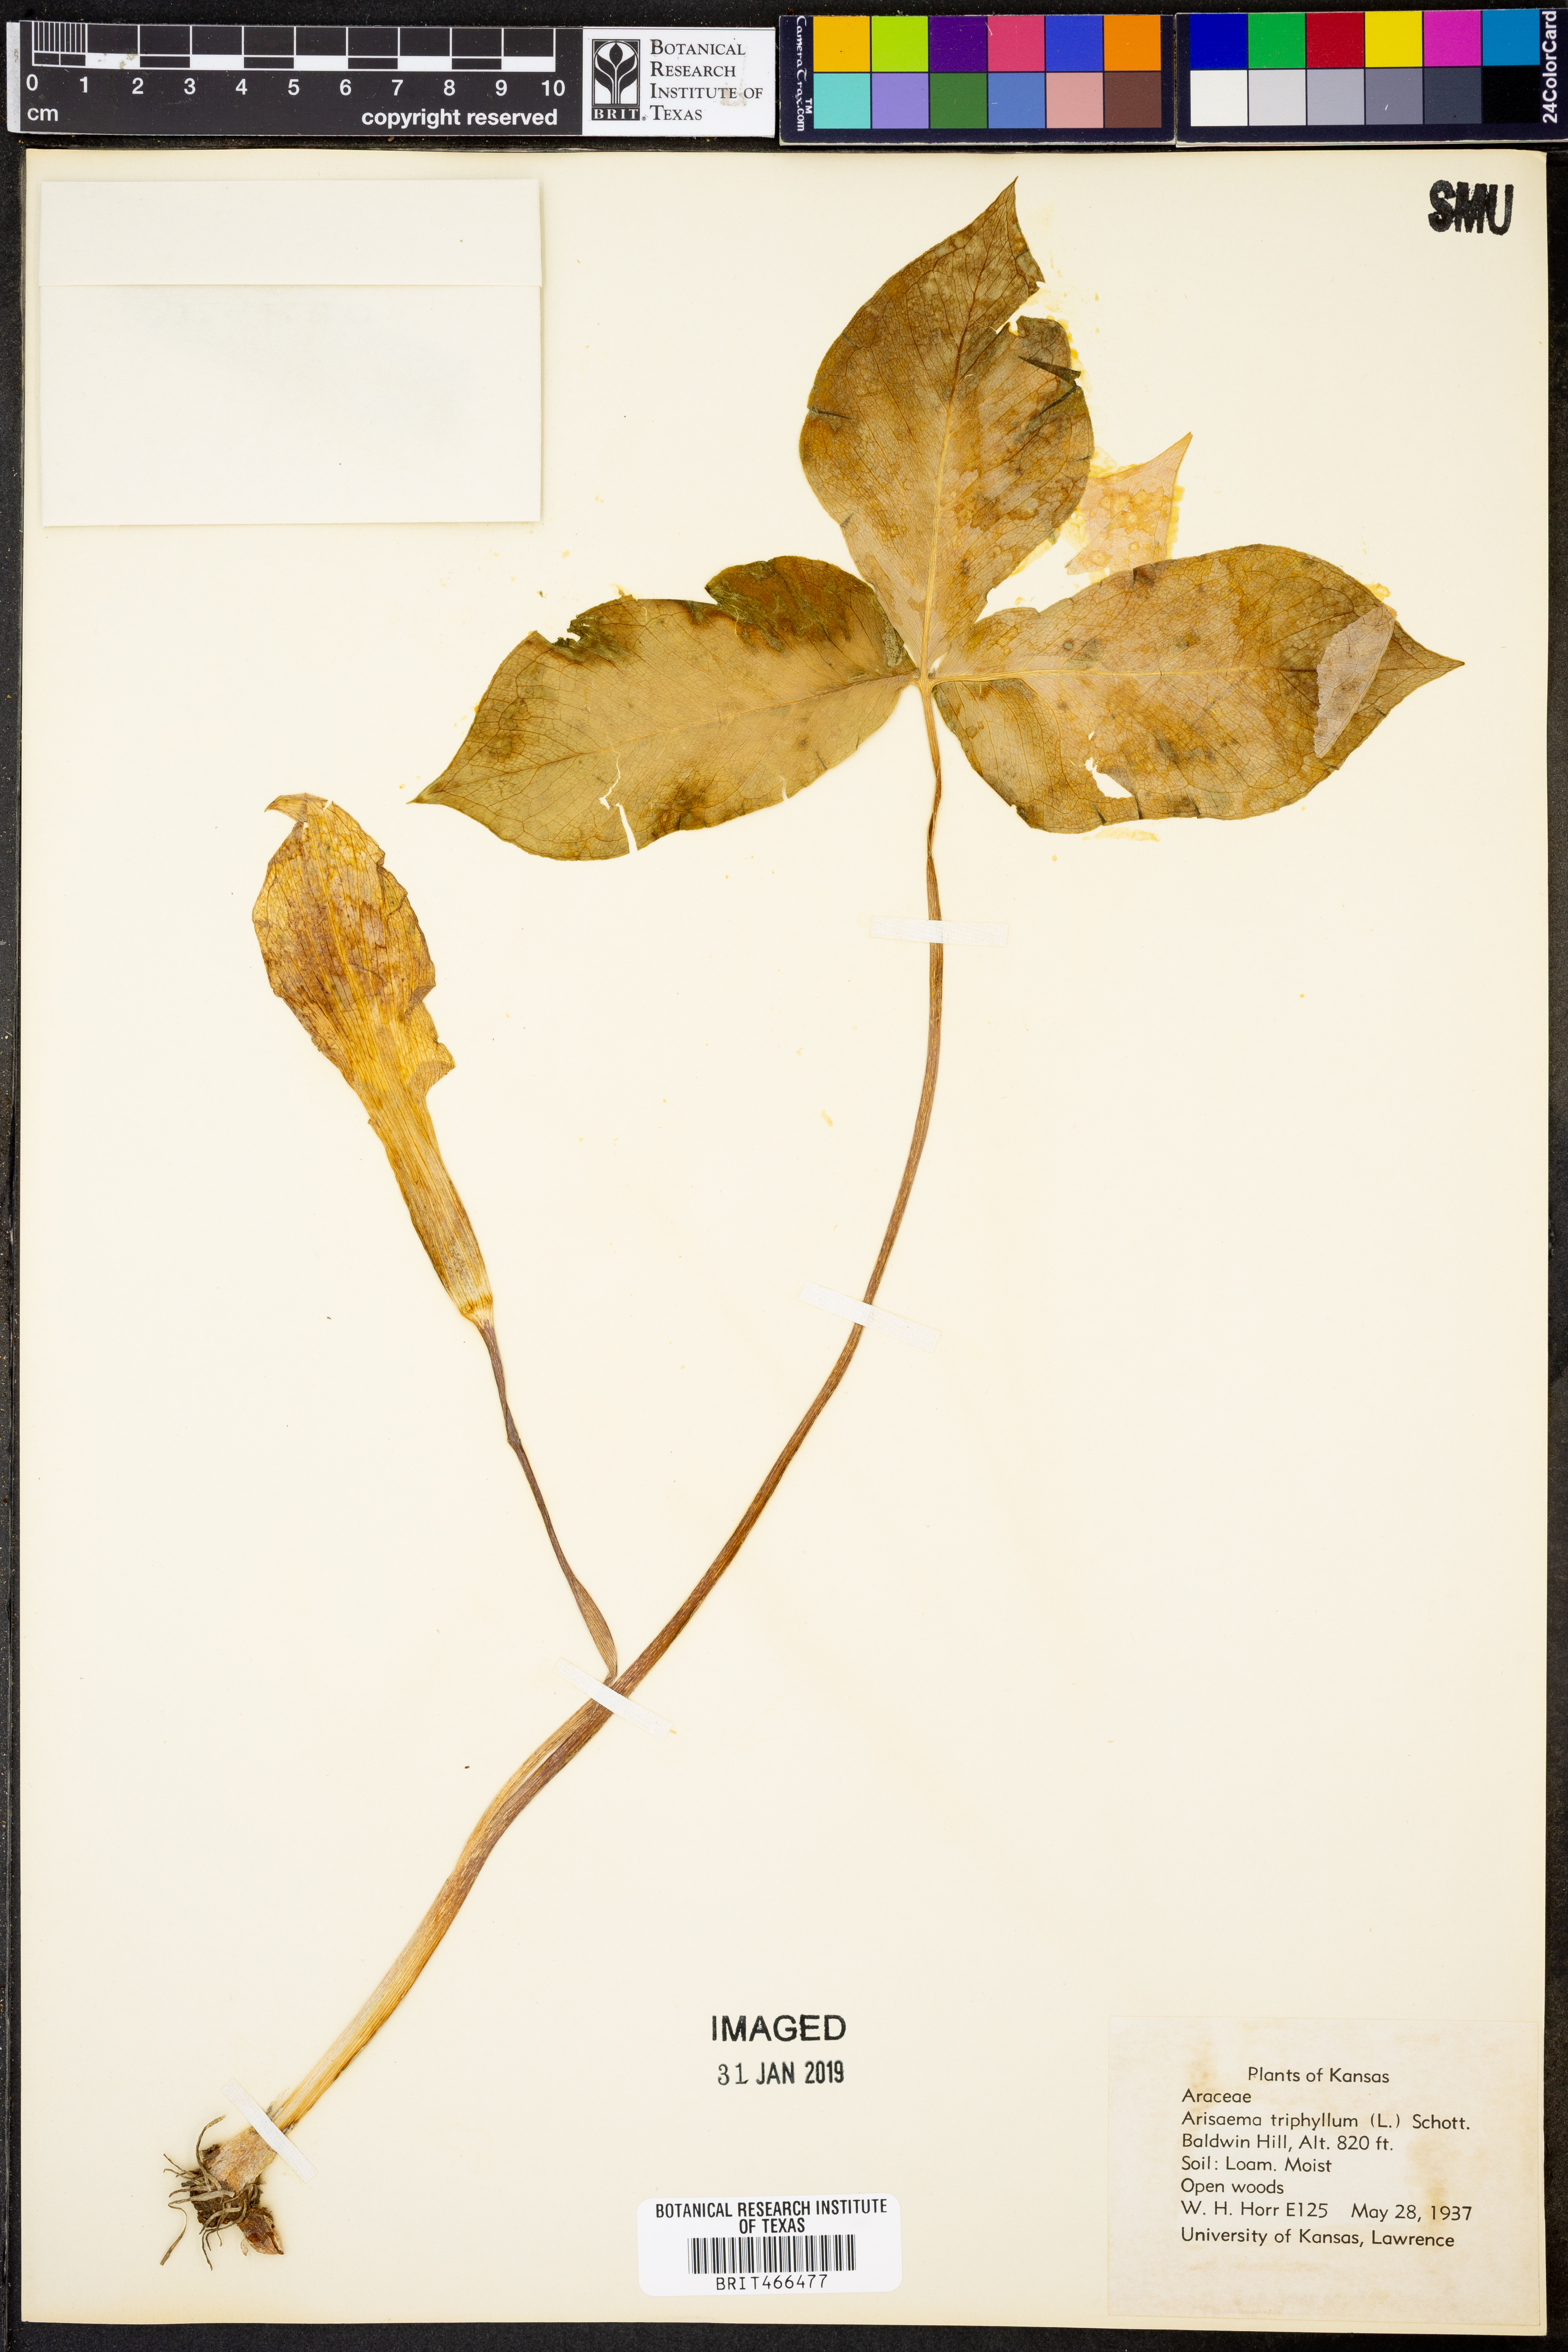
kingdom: Plantae
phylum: Tracheophyta
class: Liliopsida
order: Alismatales
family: Araceae
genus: Arisaema
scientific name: Arisaema triphyllum
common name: Jack-in-the-pulpit
